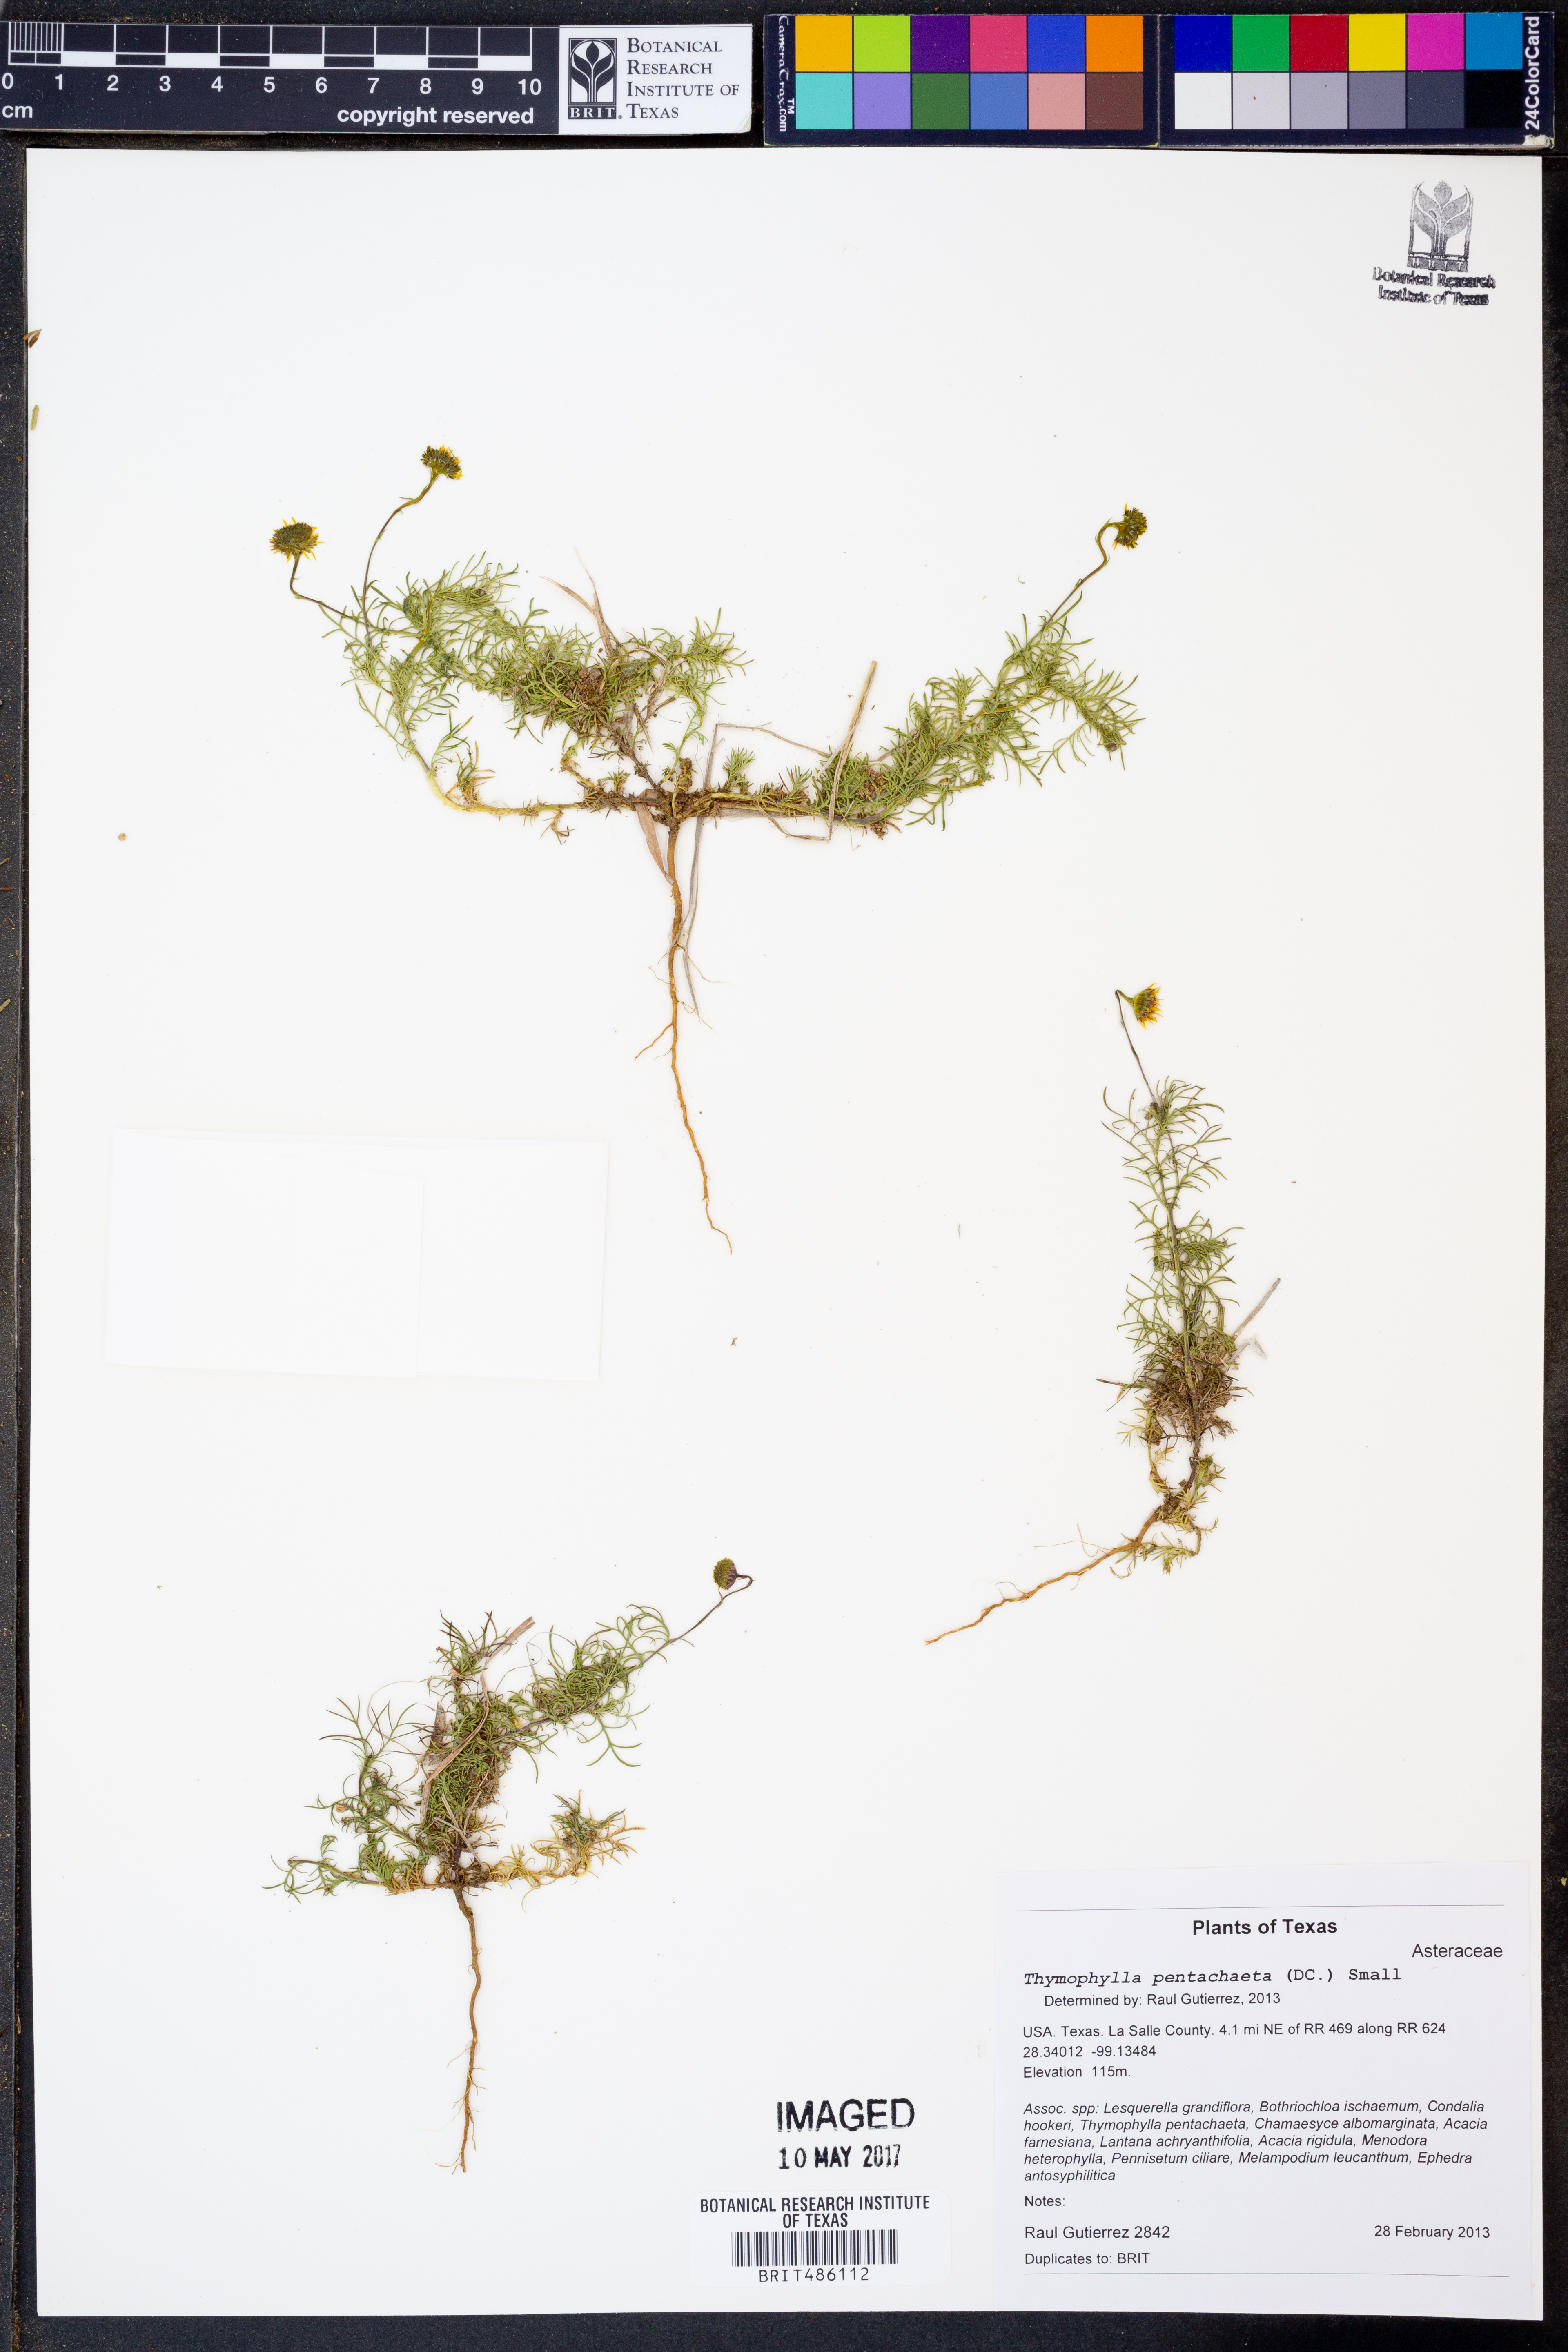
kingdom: Plantae
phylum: Tracheophyta
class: Magnoliopsida
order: Asterales
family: Asteraceae
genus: Thymophylla
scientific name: Thymophylla pentachaeta
